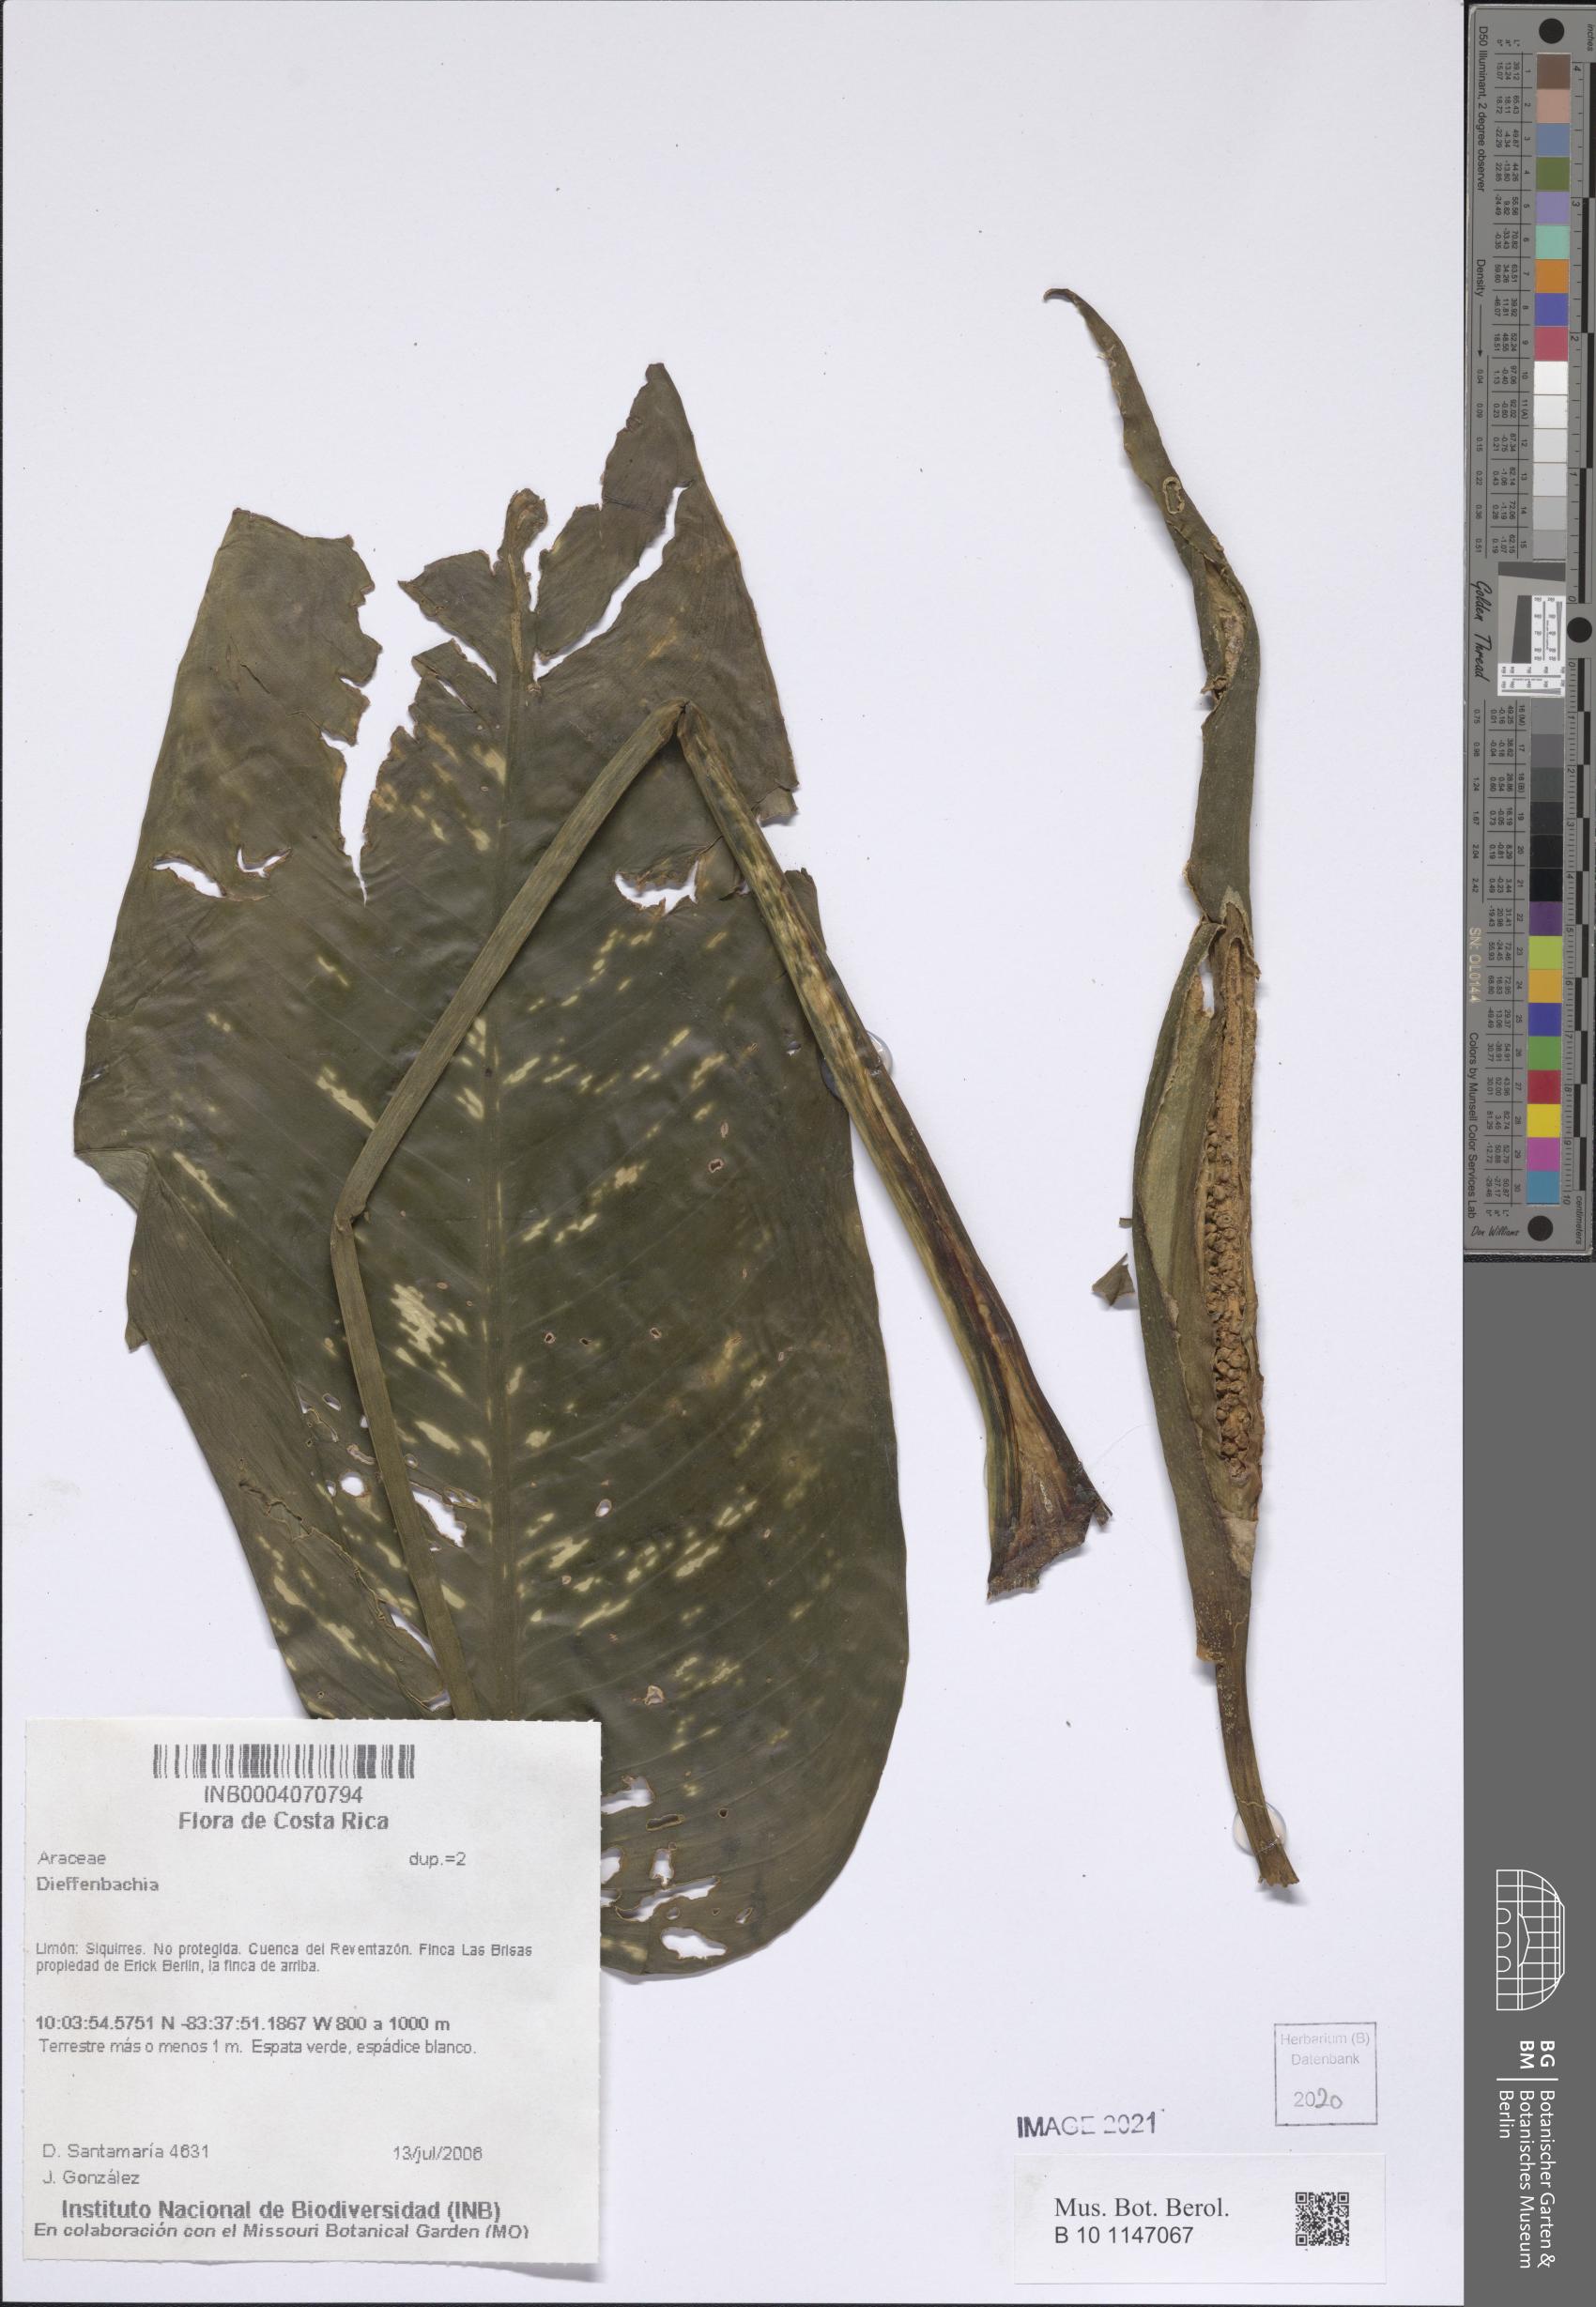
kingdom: Plantae
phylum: Tracheophyta
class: Liliopsida
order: Alismatales
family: Araceae
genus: Dieffenbachia
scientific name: Dieffenbachia
